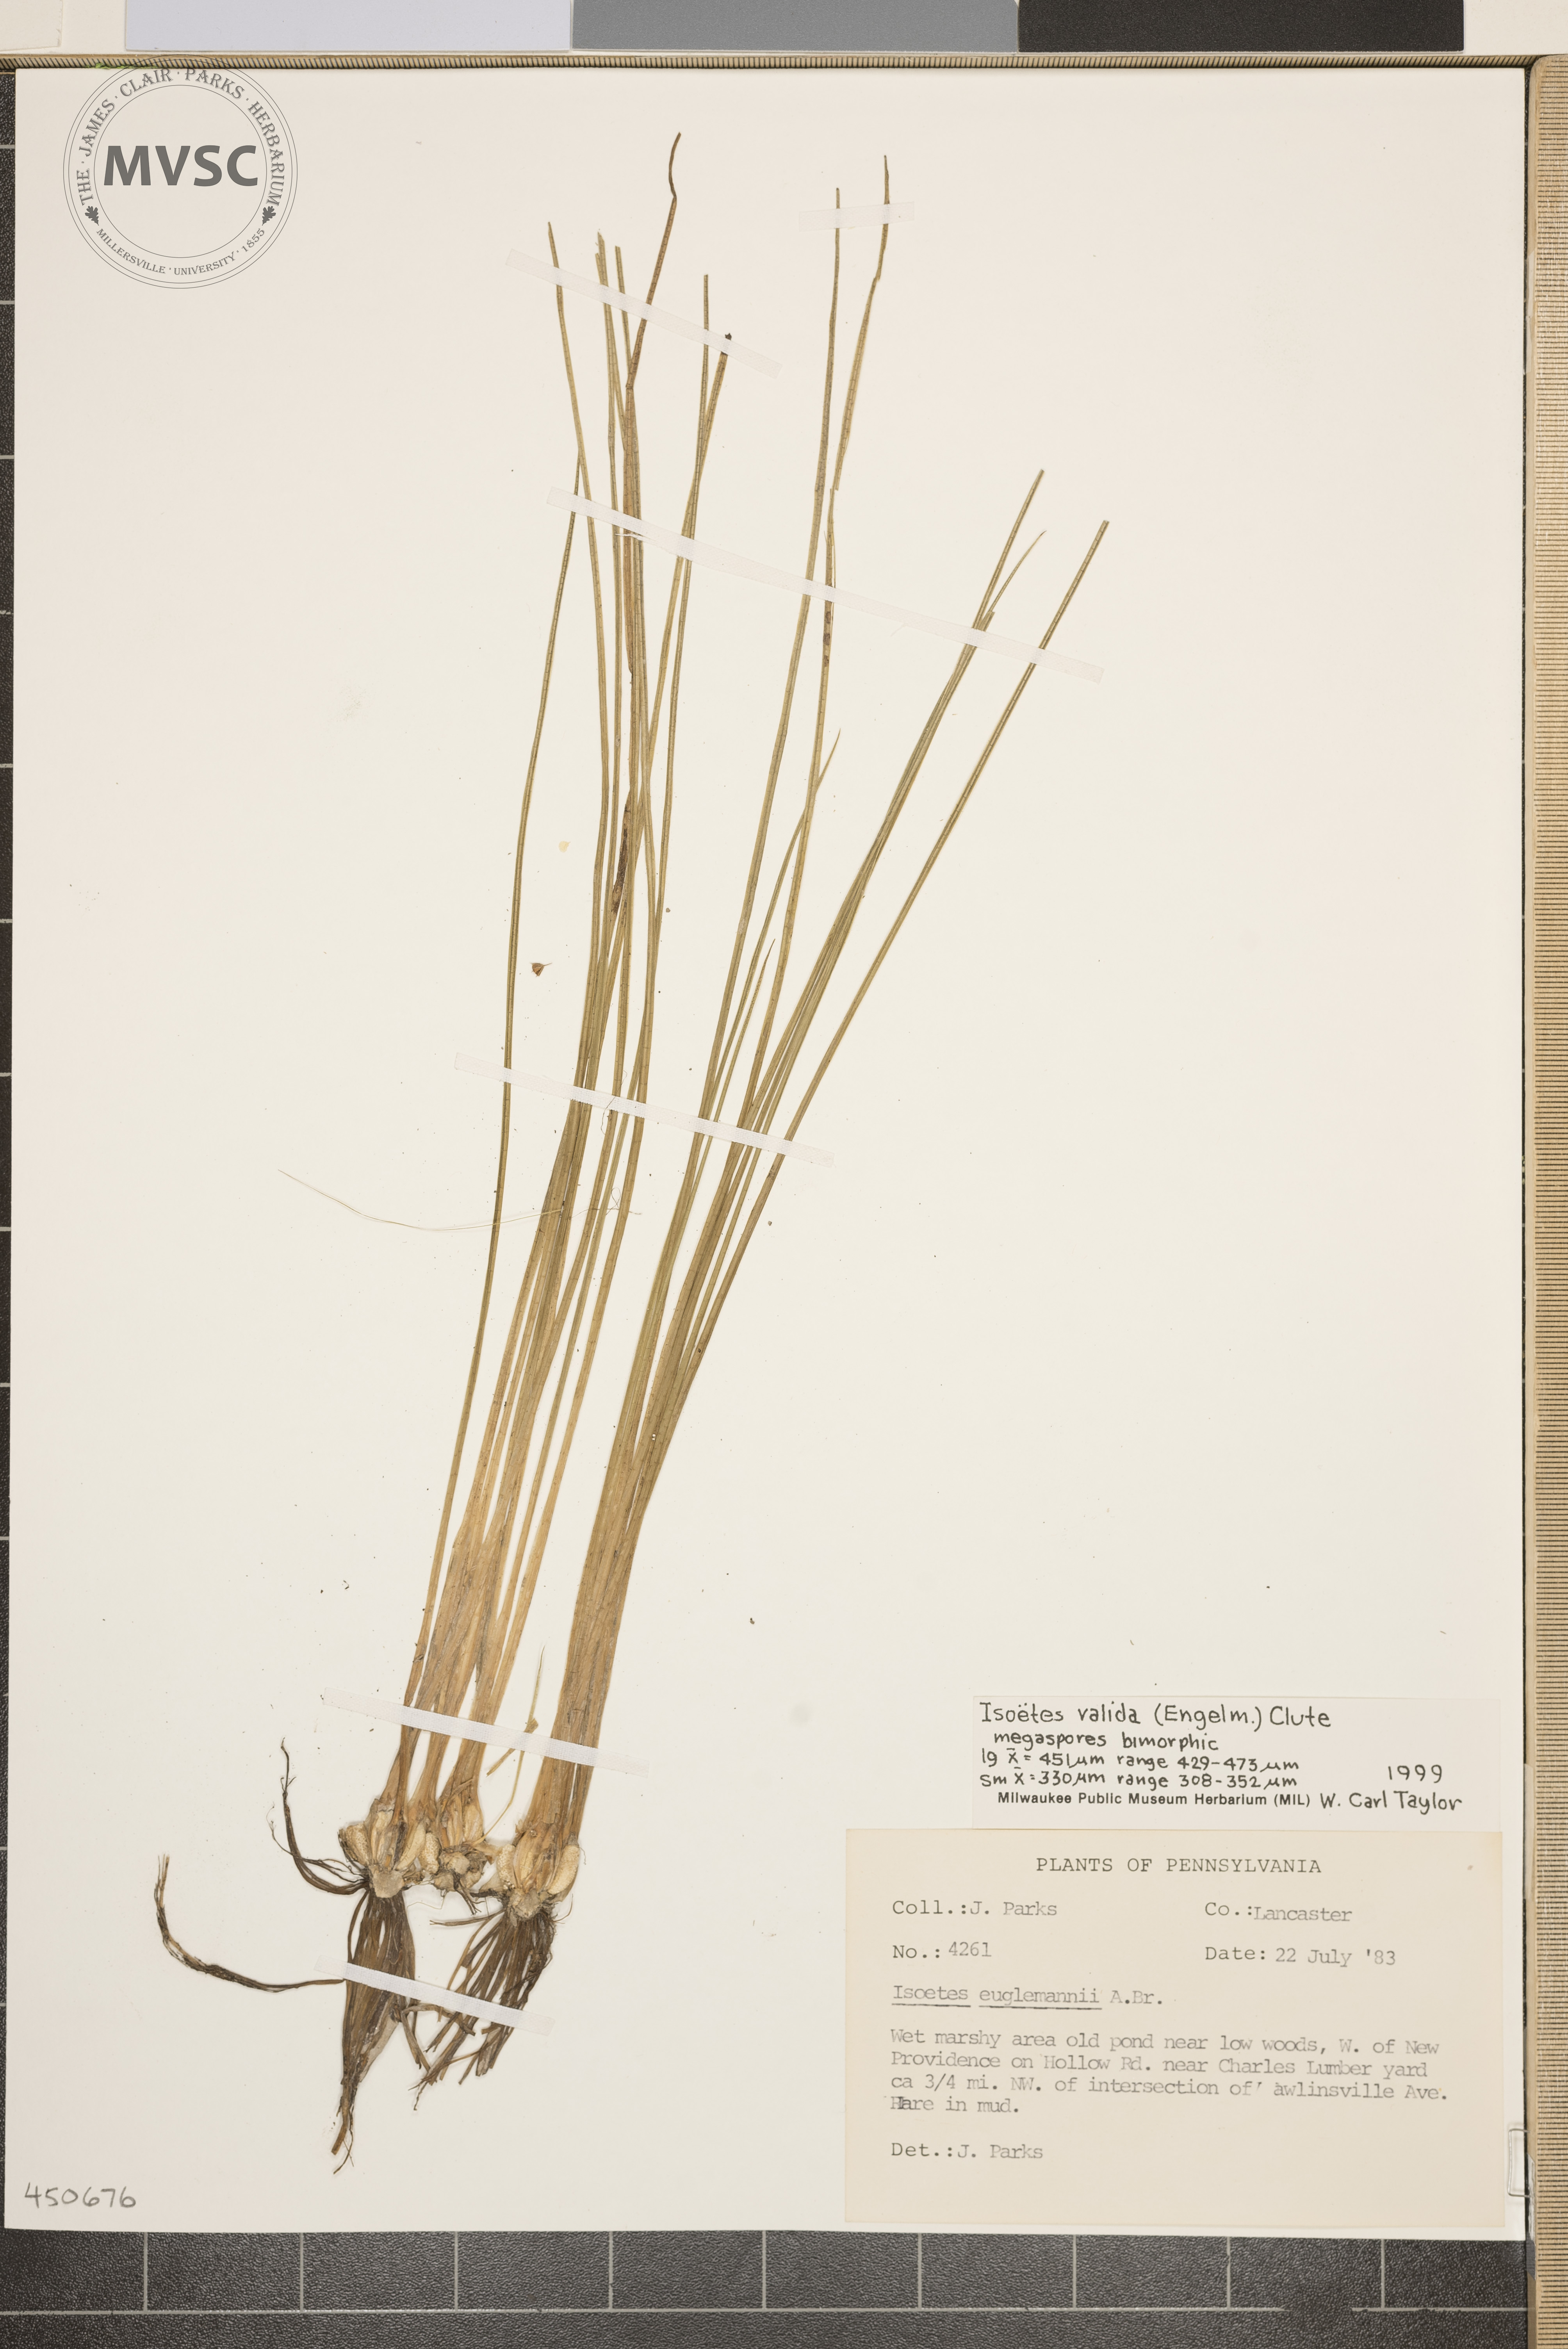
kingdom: Plantae
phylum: Tracheophyta
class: Lycopodiopsida
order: Isoetales
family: Isoetaceae
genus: Isoetes
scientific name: Isoetes valida
